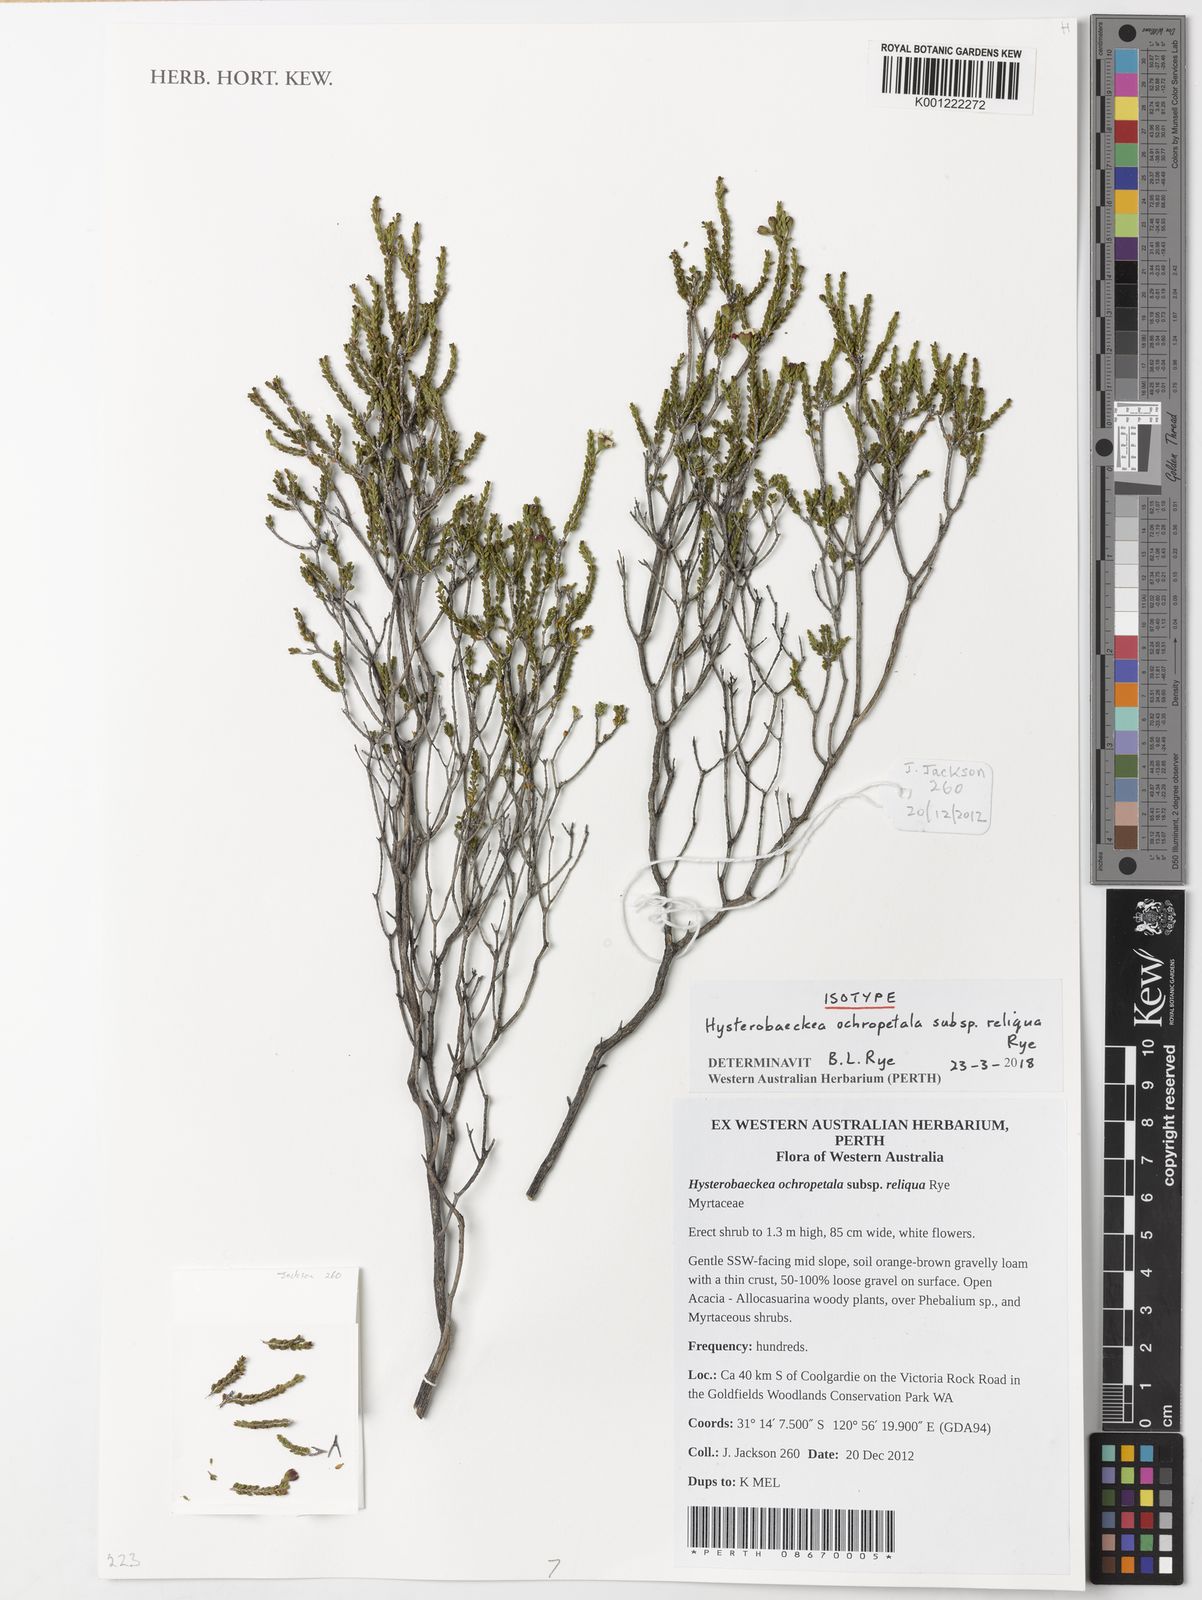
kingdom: Plantae
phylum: Tracheophyta
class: Magnoliopsida
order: Myrtales
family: Myrtaceae
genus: Hysterobaeckea
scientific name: Hysterobaeckea ochropetala
